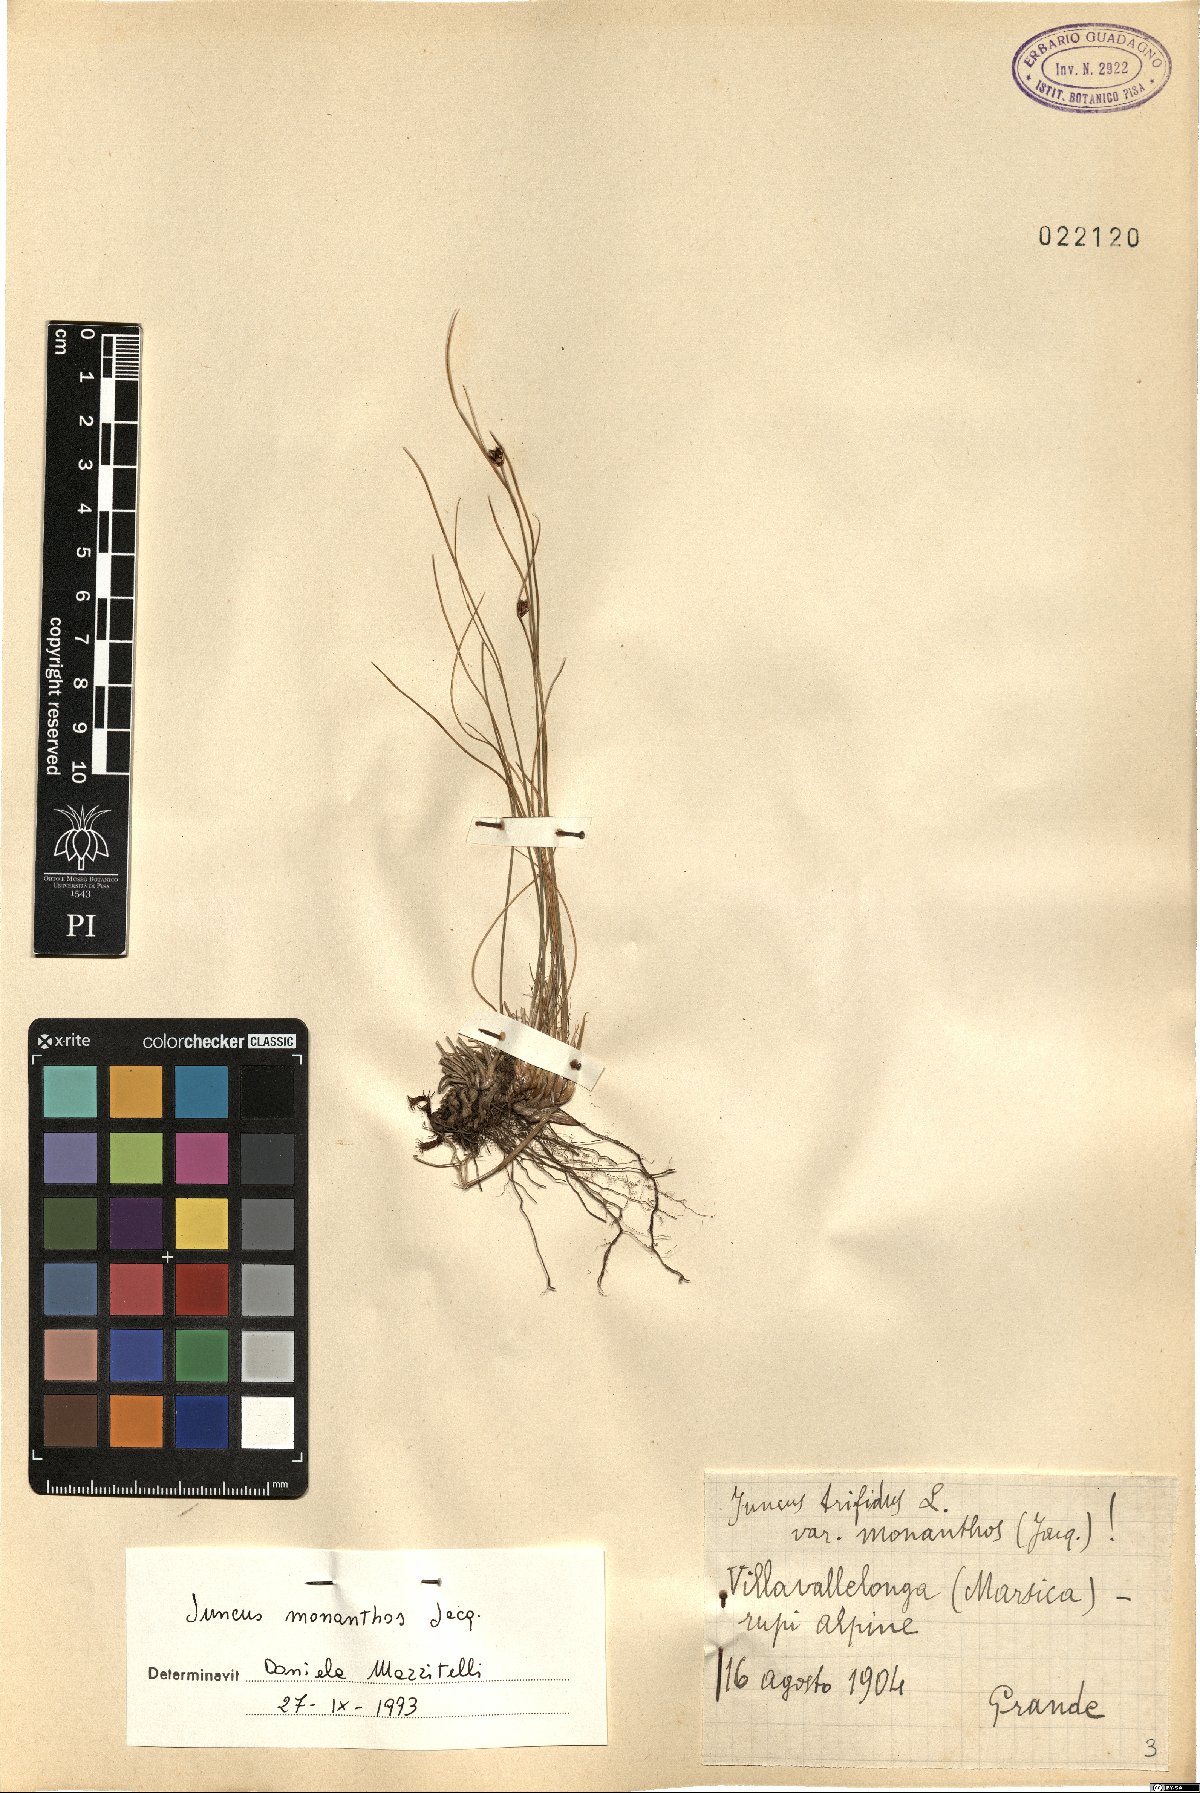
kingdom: Plantae
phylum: Tracheophyta
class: Liliopsida
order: Poales
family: Juncaceae
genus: Oreojuncus
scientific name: Oreojuncus monanthos
